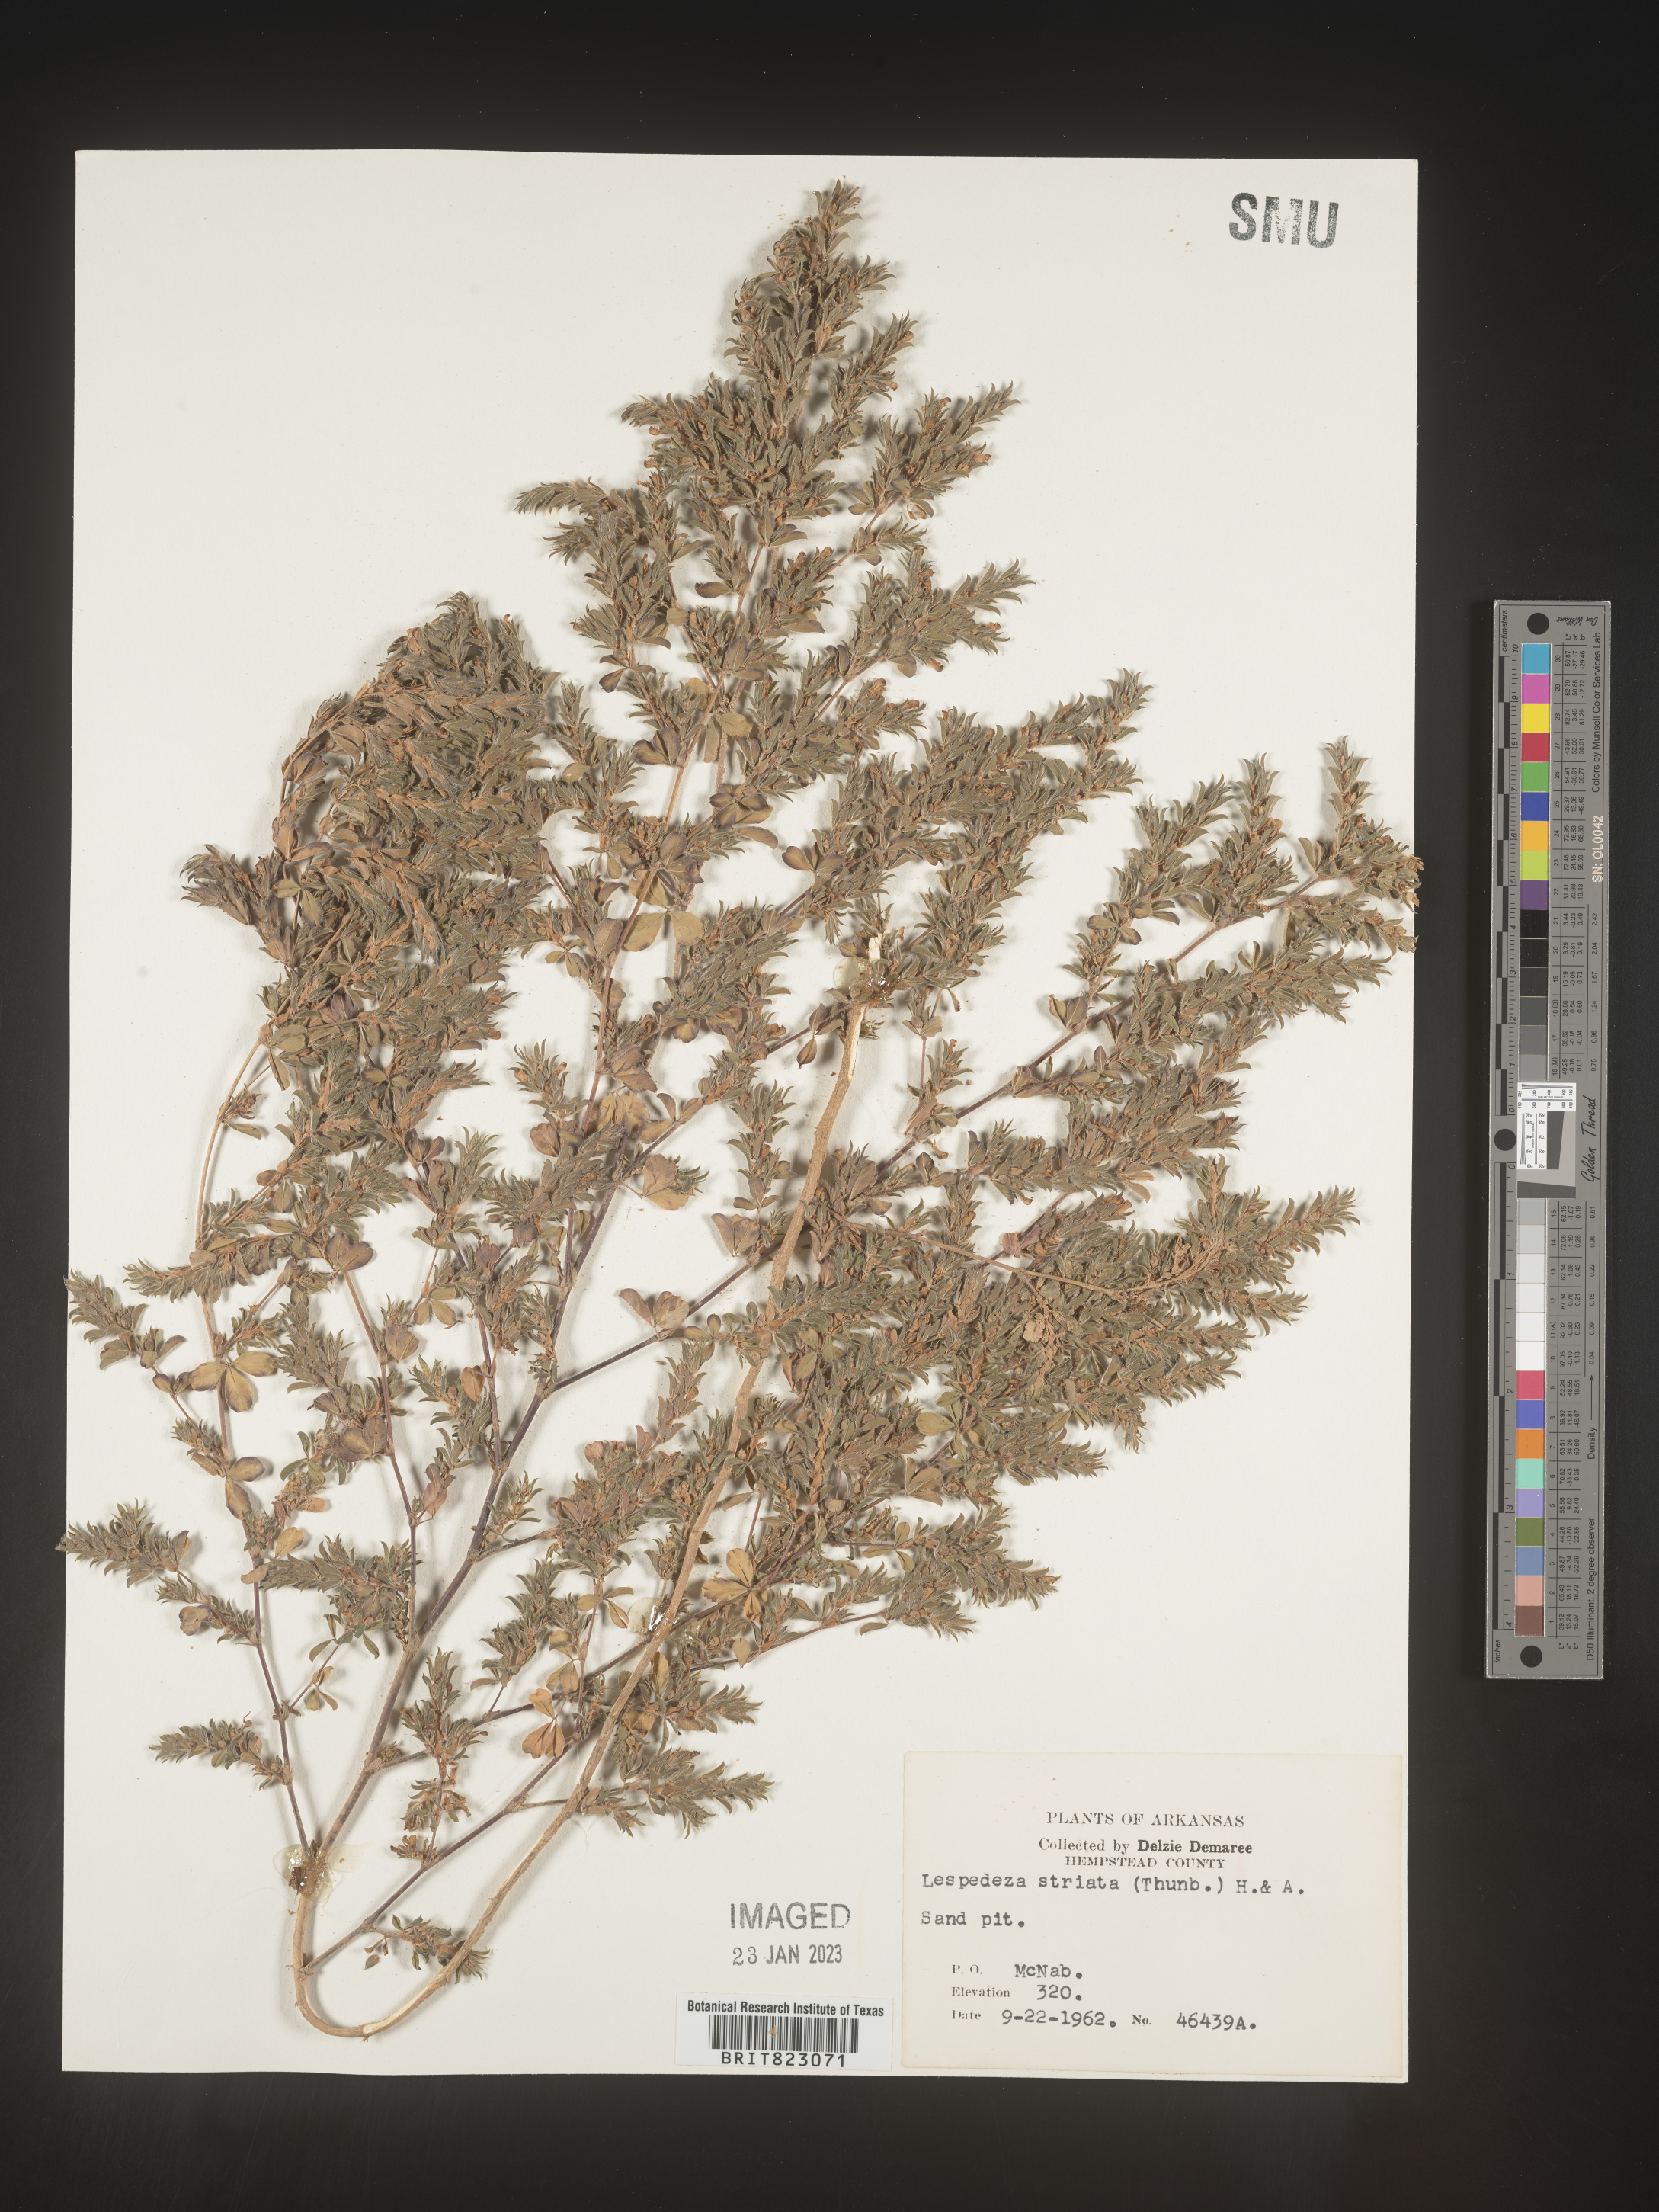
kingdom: Plantae
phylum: Tracheophyta
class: Magnoliopsida
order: Fabales
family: Fabaceae
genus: Kummerowia
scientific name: Kummerowia striata
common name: Japanese clover
